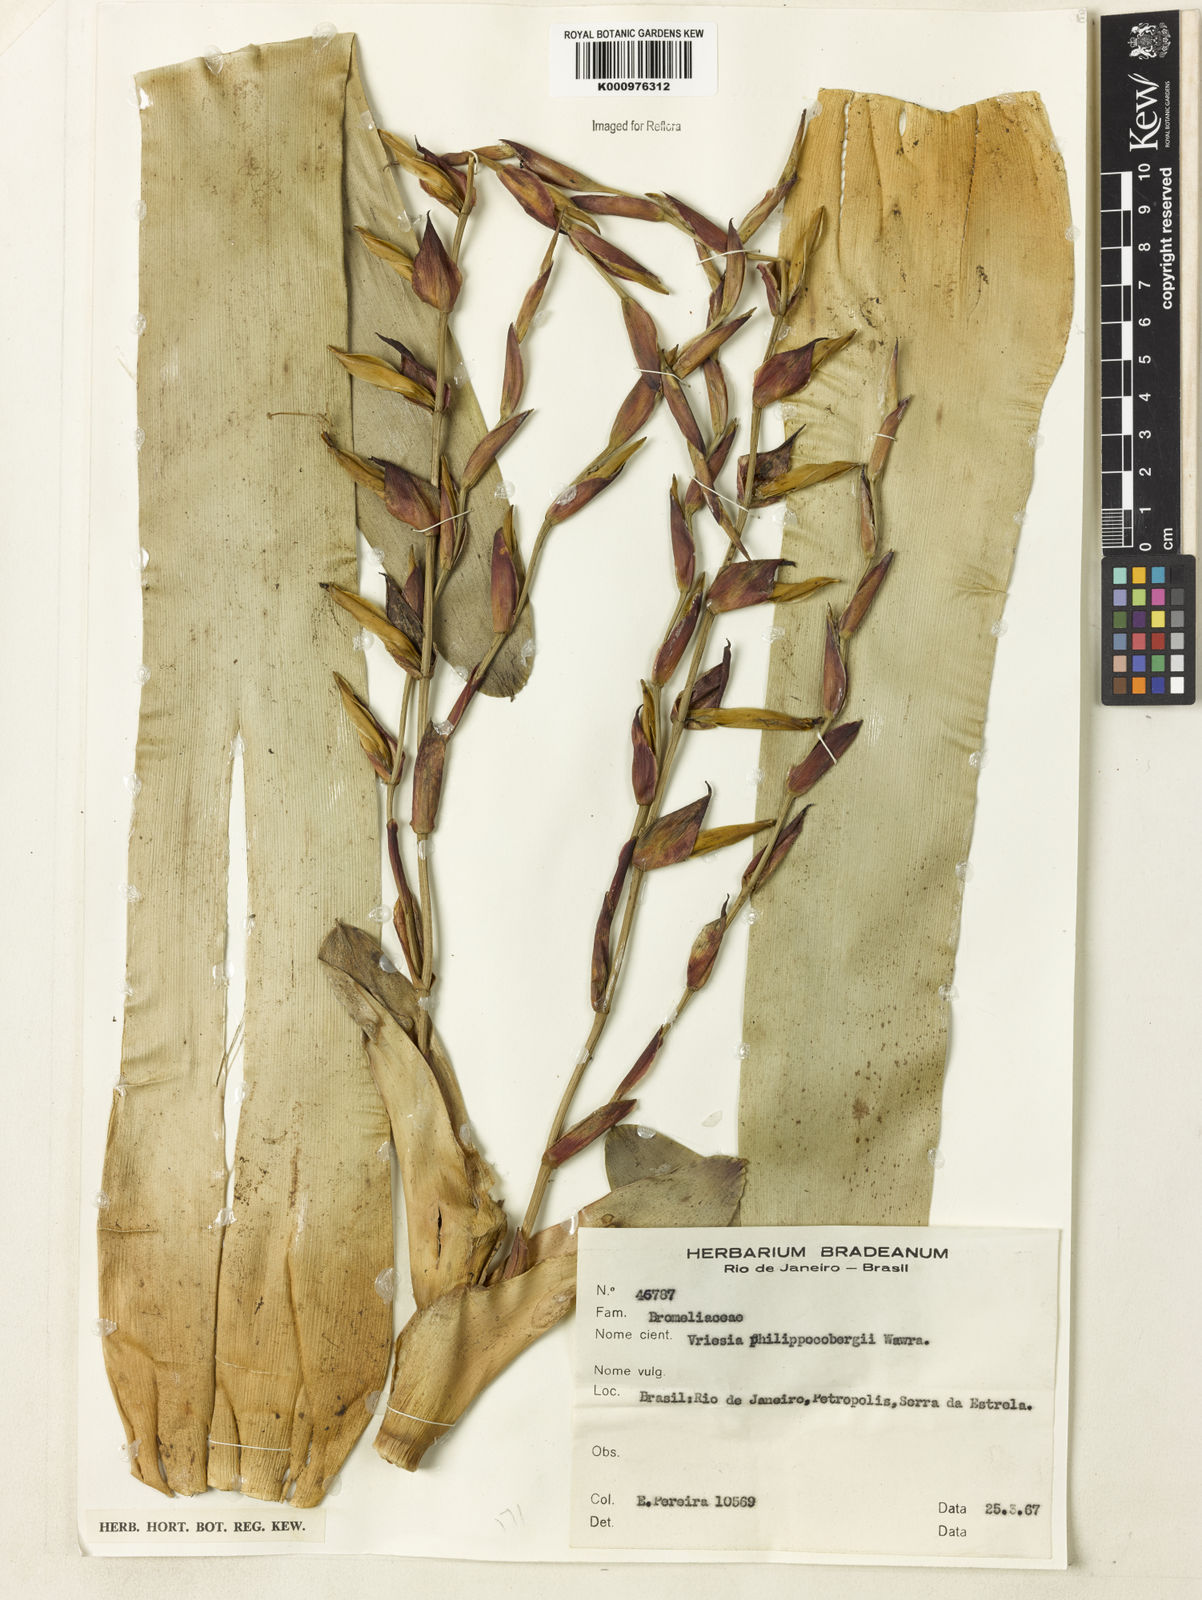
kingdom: Plantae
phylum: Tracheophyta
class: Liliopsida
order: Poales
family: Bromeliaceae
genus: Vriesea
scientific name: Vriesea philippocoburgi
